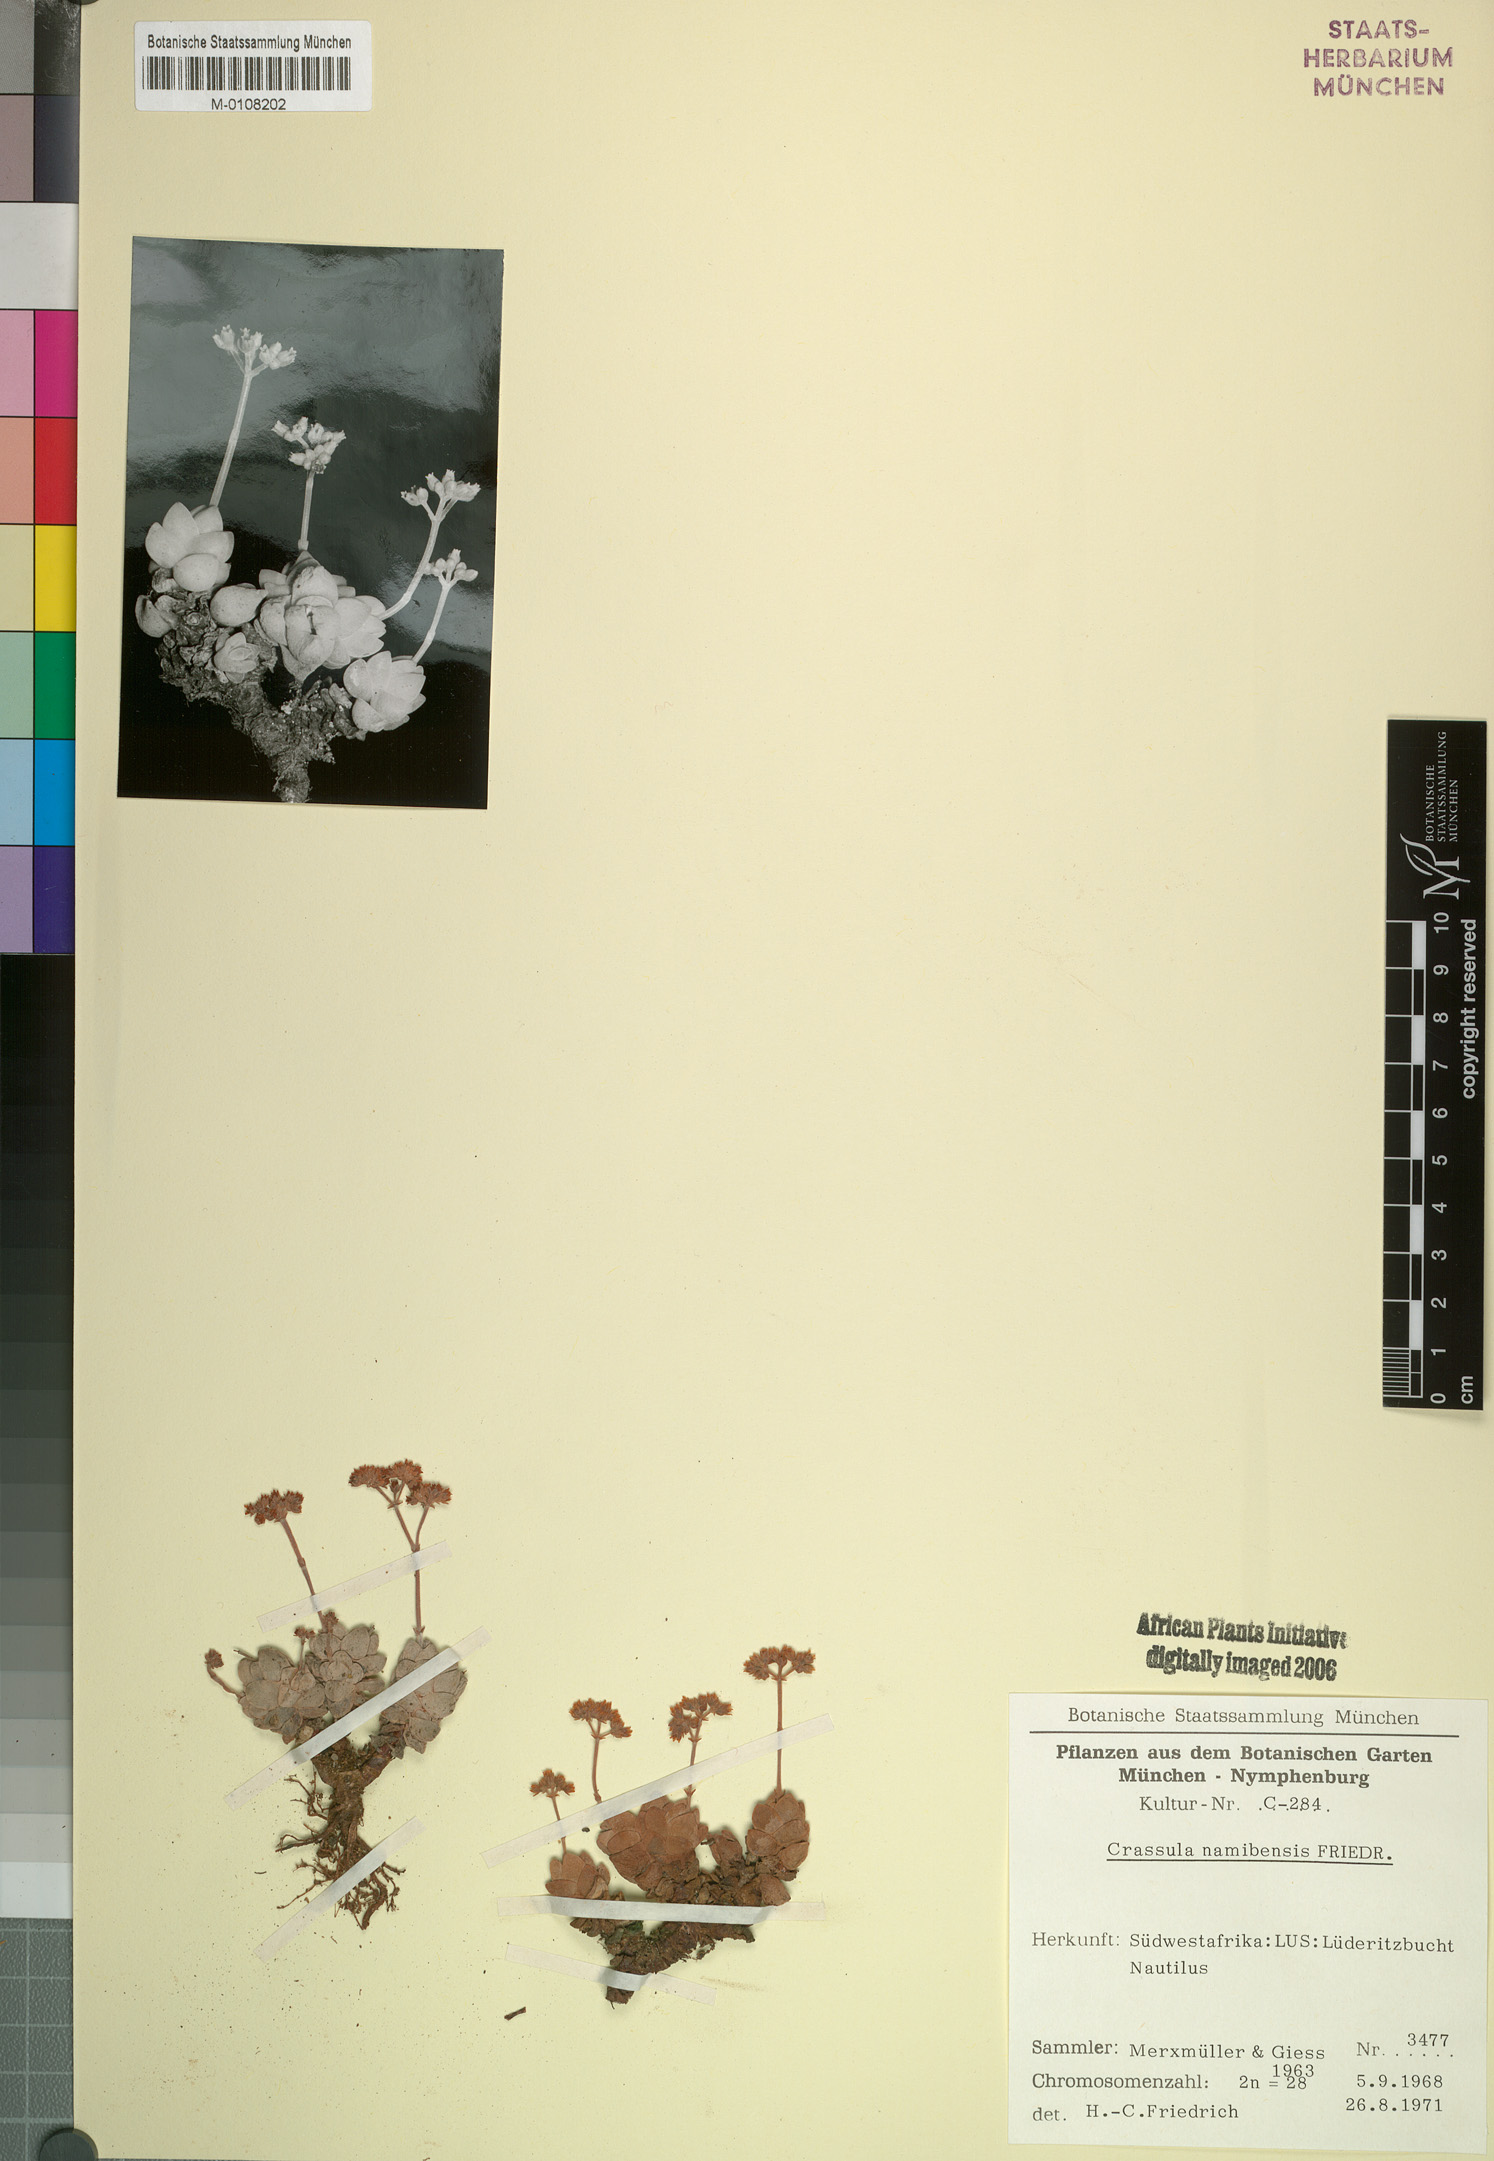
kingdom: Plantae
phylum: Tracheophyta
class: Magnoliopsida
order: Saxifragales
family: Crassulaceae
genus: Crassula
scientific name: Crassula elegans
